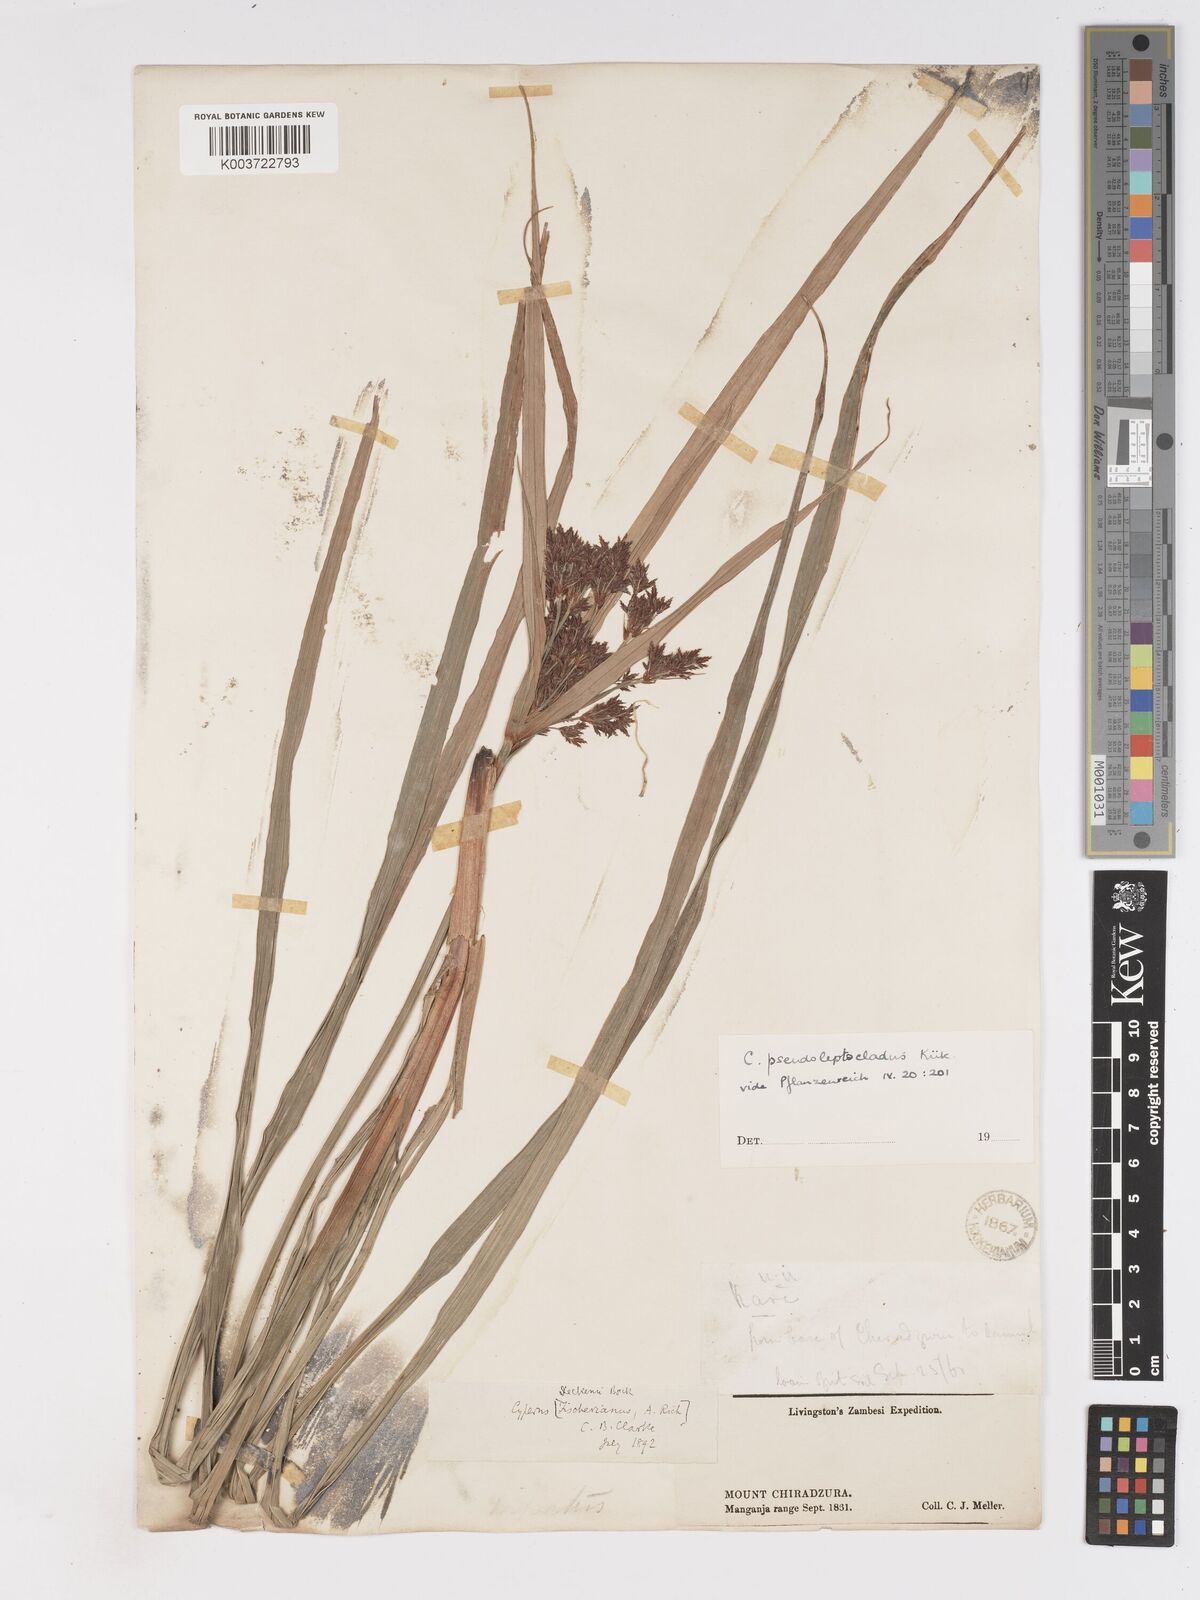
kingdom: Plantae
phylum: Tracheophyta
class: Liliopsida
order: Poales
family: Cyperaceae
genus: Cyperus
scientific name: Cyperus glaucophyllus
